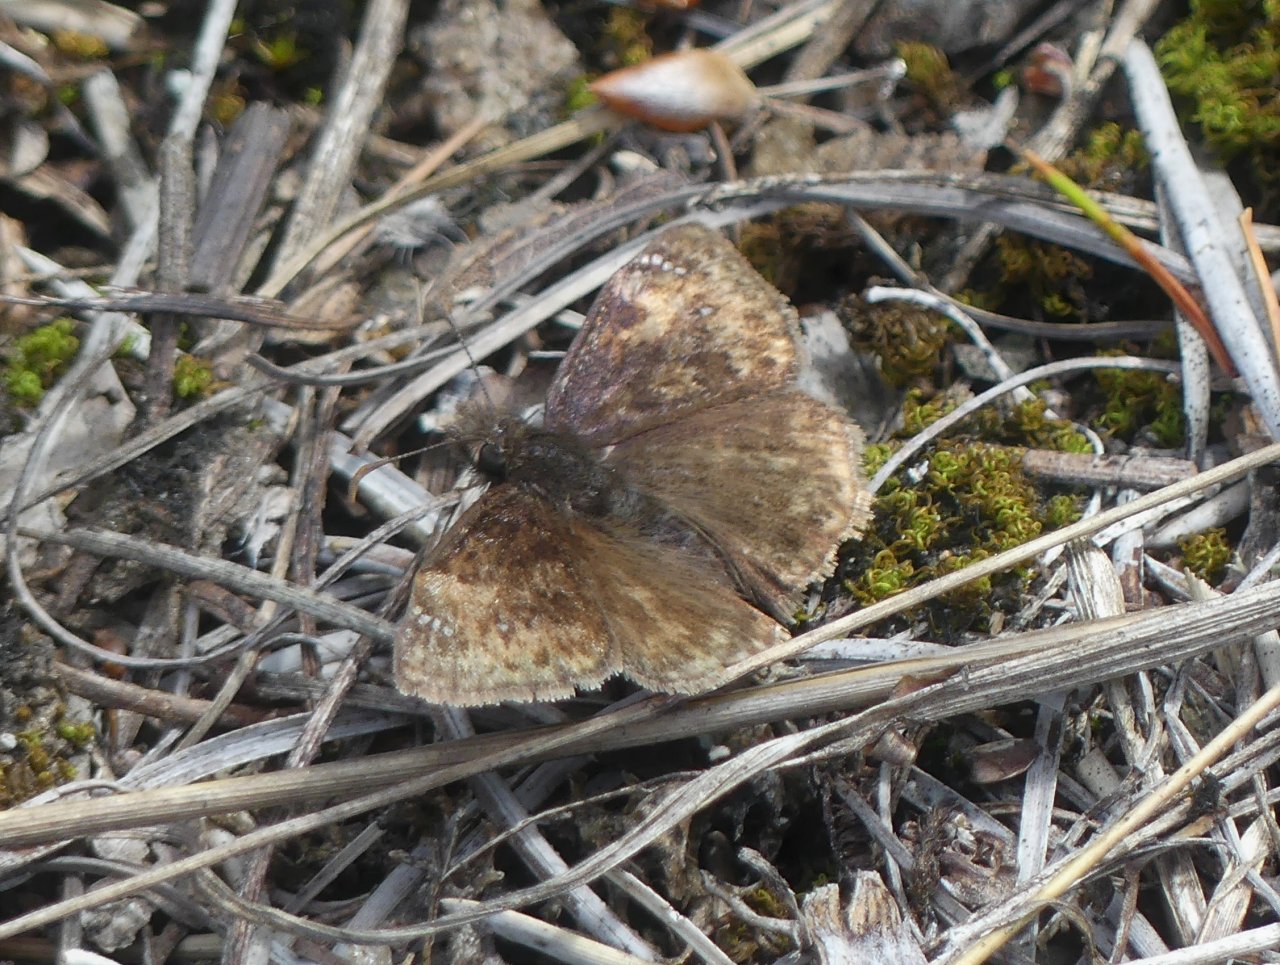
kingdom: Animalia
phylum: Arthropoda
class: Insecta
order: Lepidoptera
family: Hesperiidae
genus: Gesta
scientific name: Gesta
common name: Columbine Duskywing
